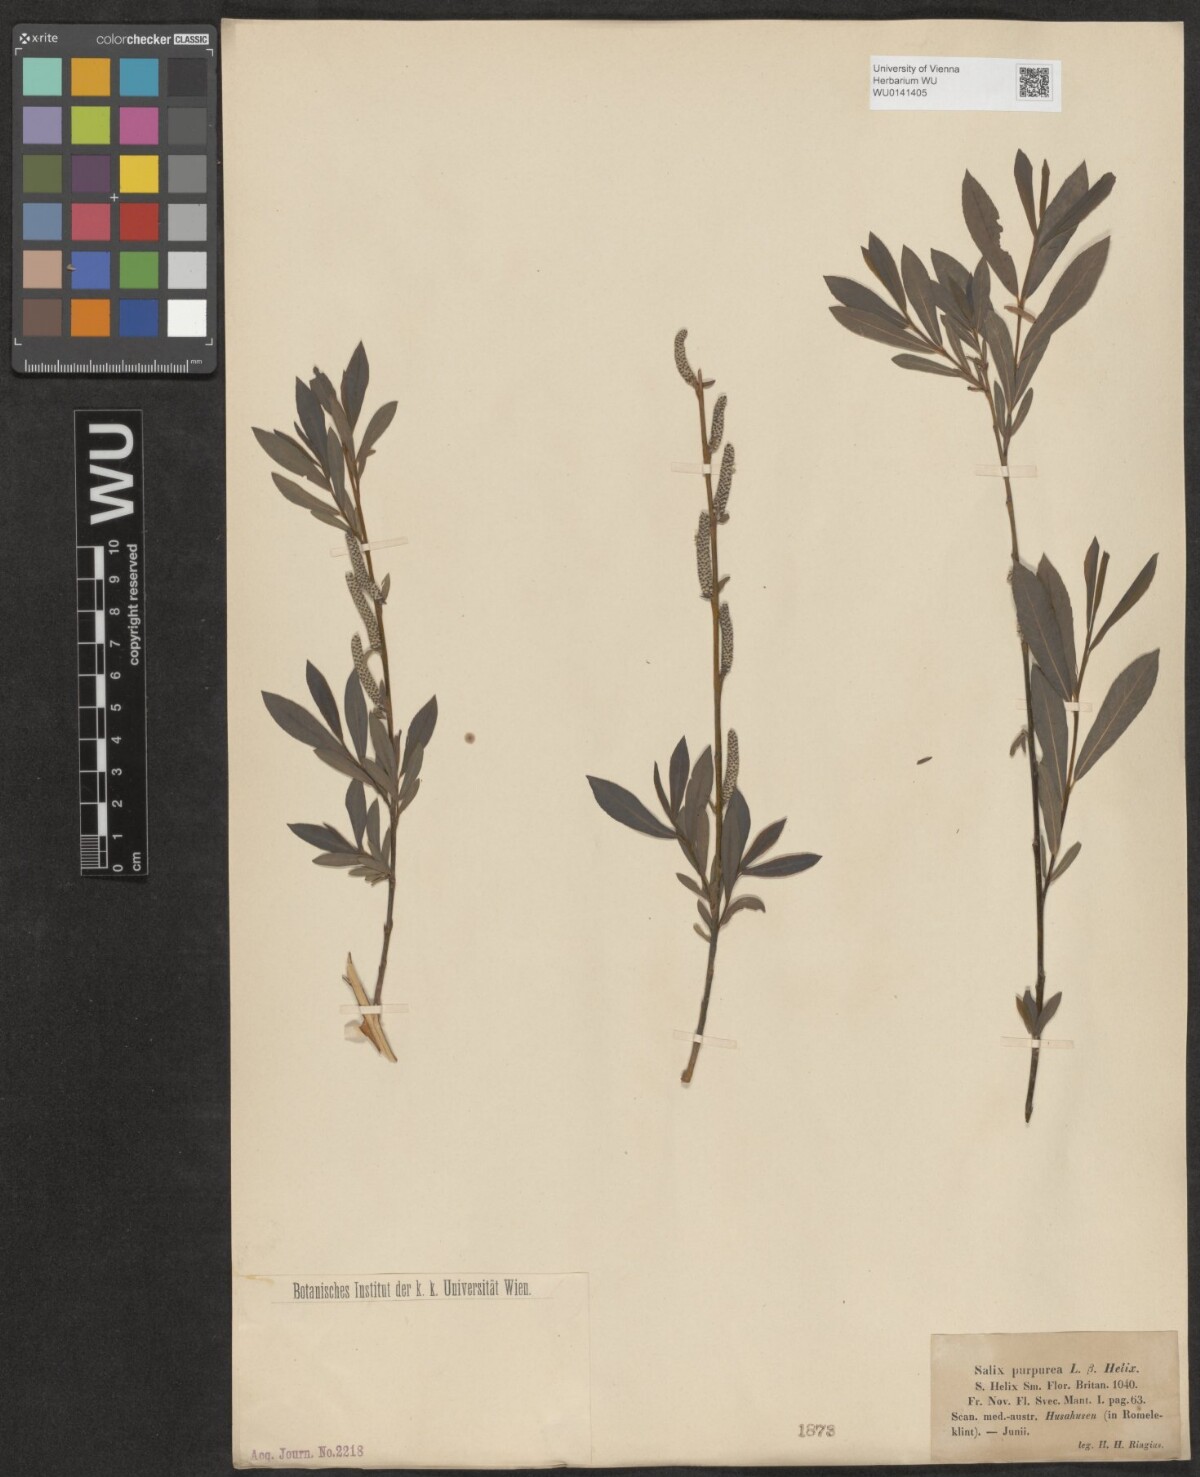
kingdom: Plantae
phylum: Tracheophyta
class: Magnoliopsida
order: Malpighiales
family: Salicaceae
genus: Salix
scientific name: Salix purpurea
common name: Purple willow
